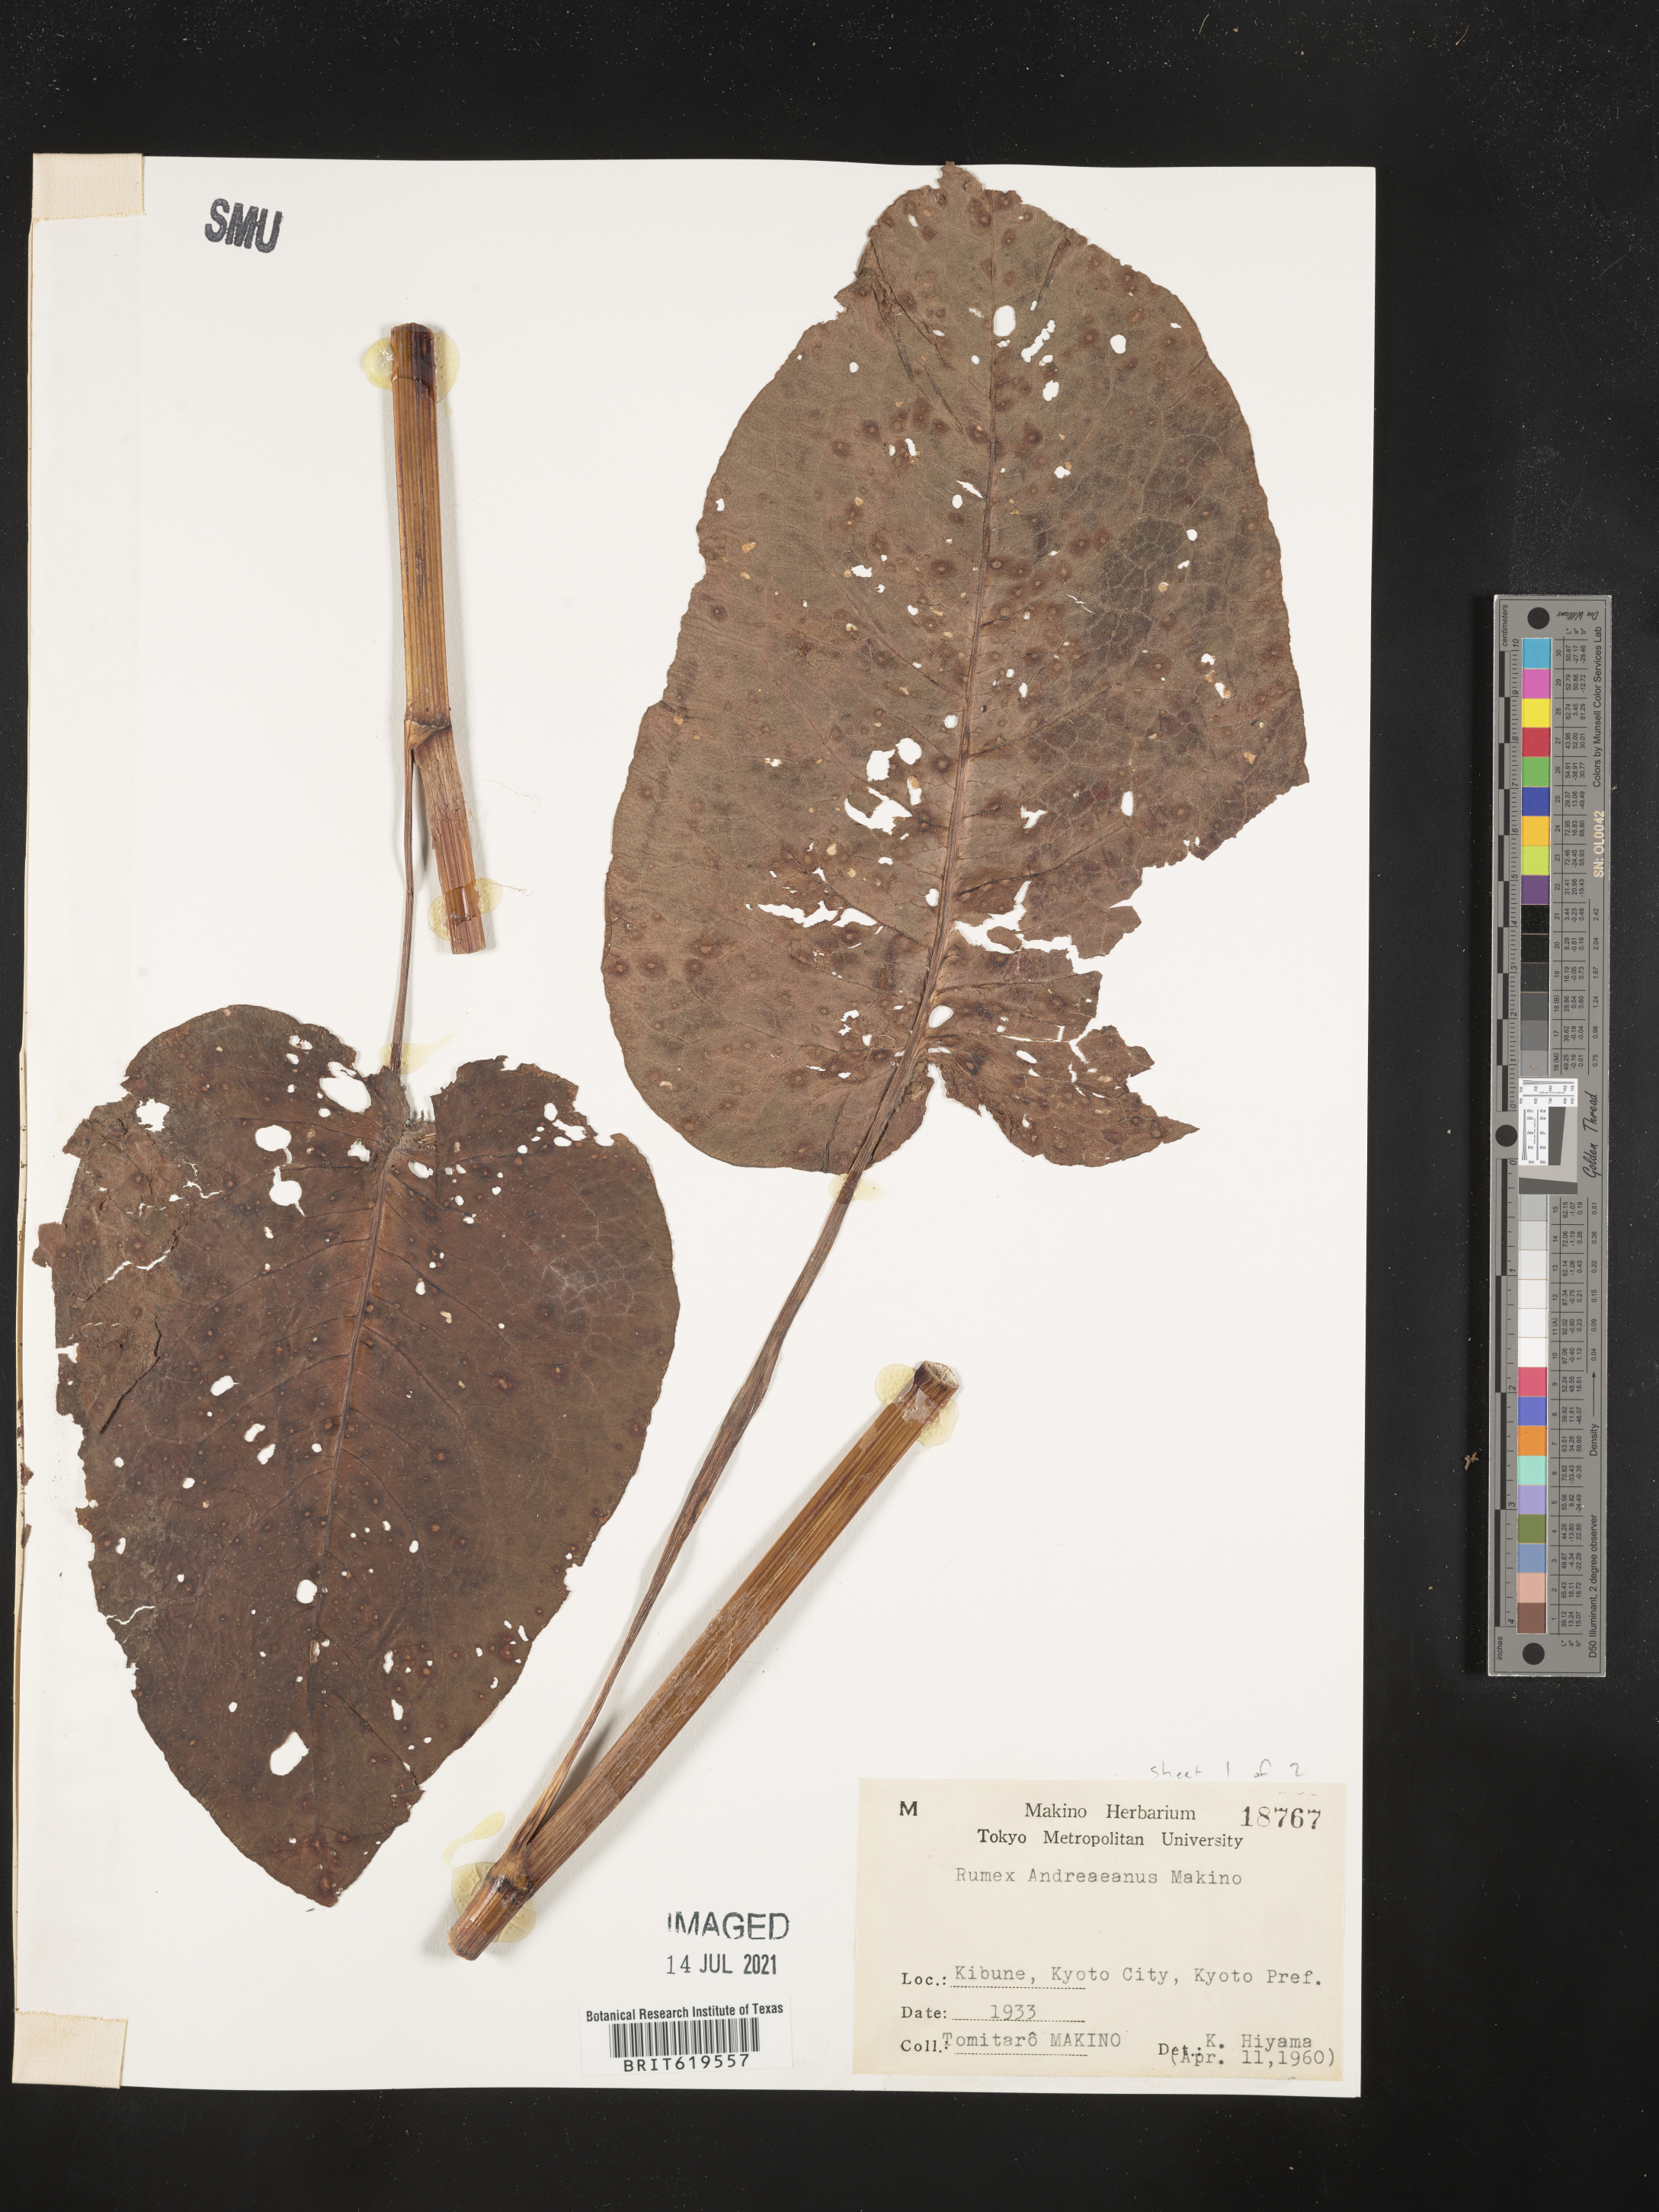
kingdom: Plantae
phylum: Tracheophyta
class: Magnoliopsida
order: Caryophyllales
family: Polygonaceae
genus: Rumex
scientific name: Rumex nepalensis
